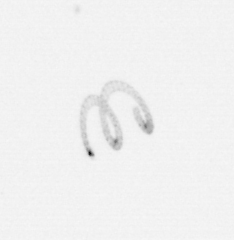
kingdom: Chromista
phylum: Ochrophyta
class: Bacillariophyceae
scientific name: Bacillariophyceae
